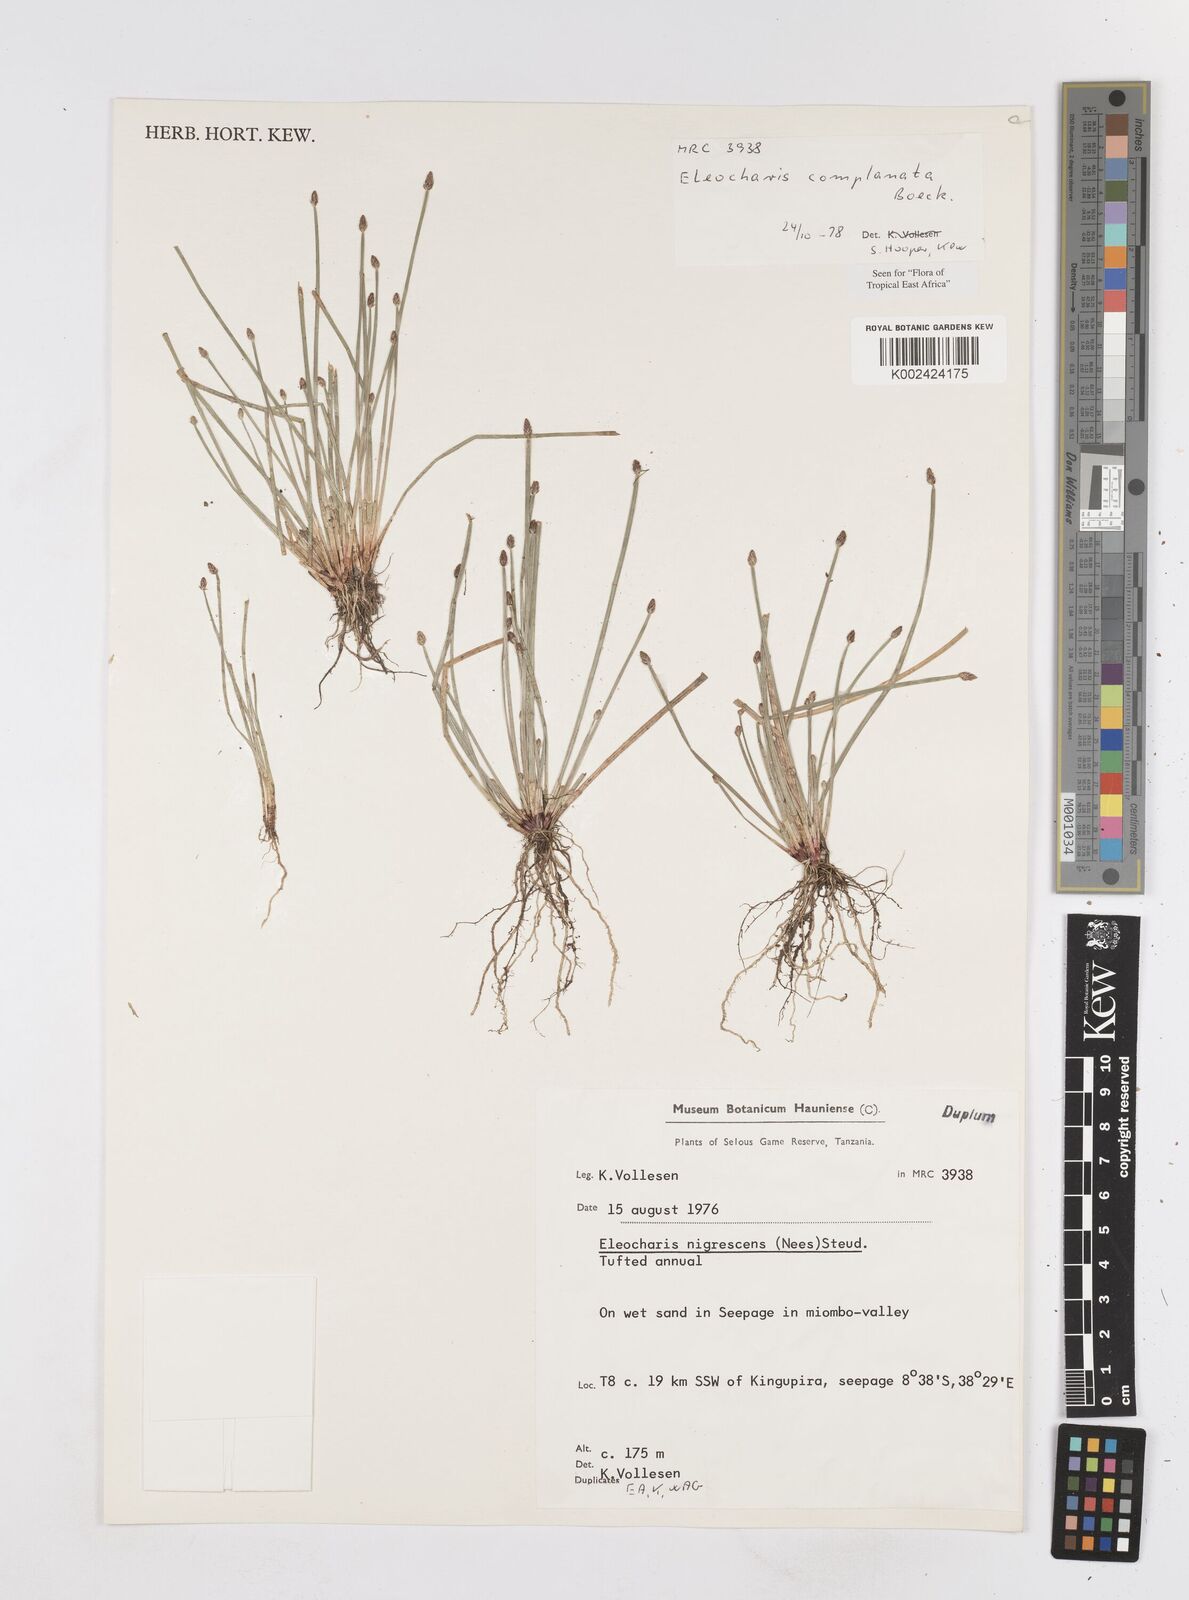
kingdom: Plantae
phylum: Tracheophyta
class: Liliopsida
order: Poales
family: Cyperaceae
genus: Eleocharis
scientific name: Eleocharis complanata
